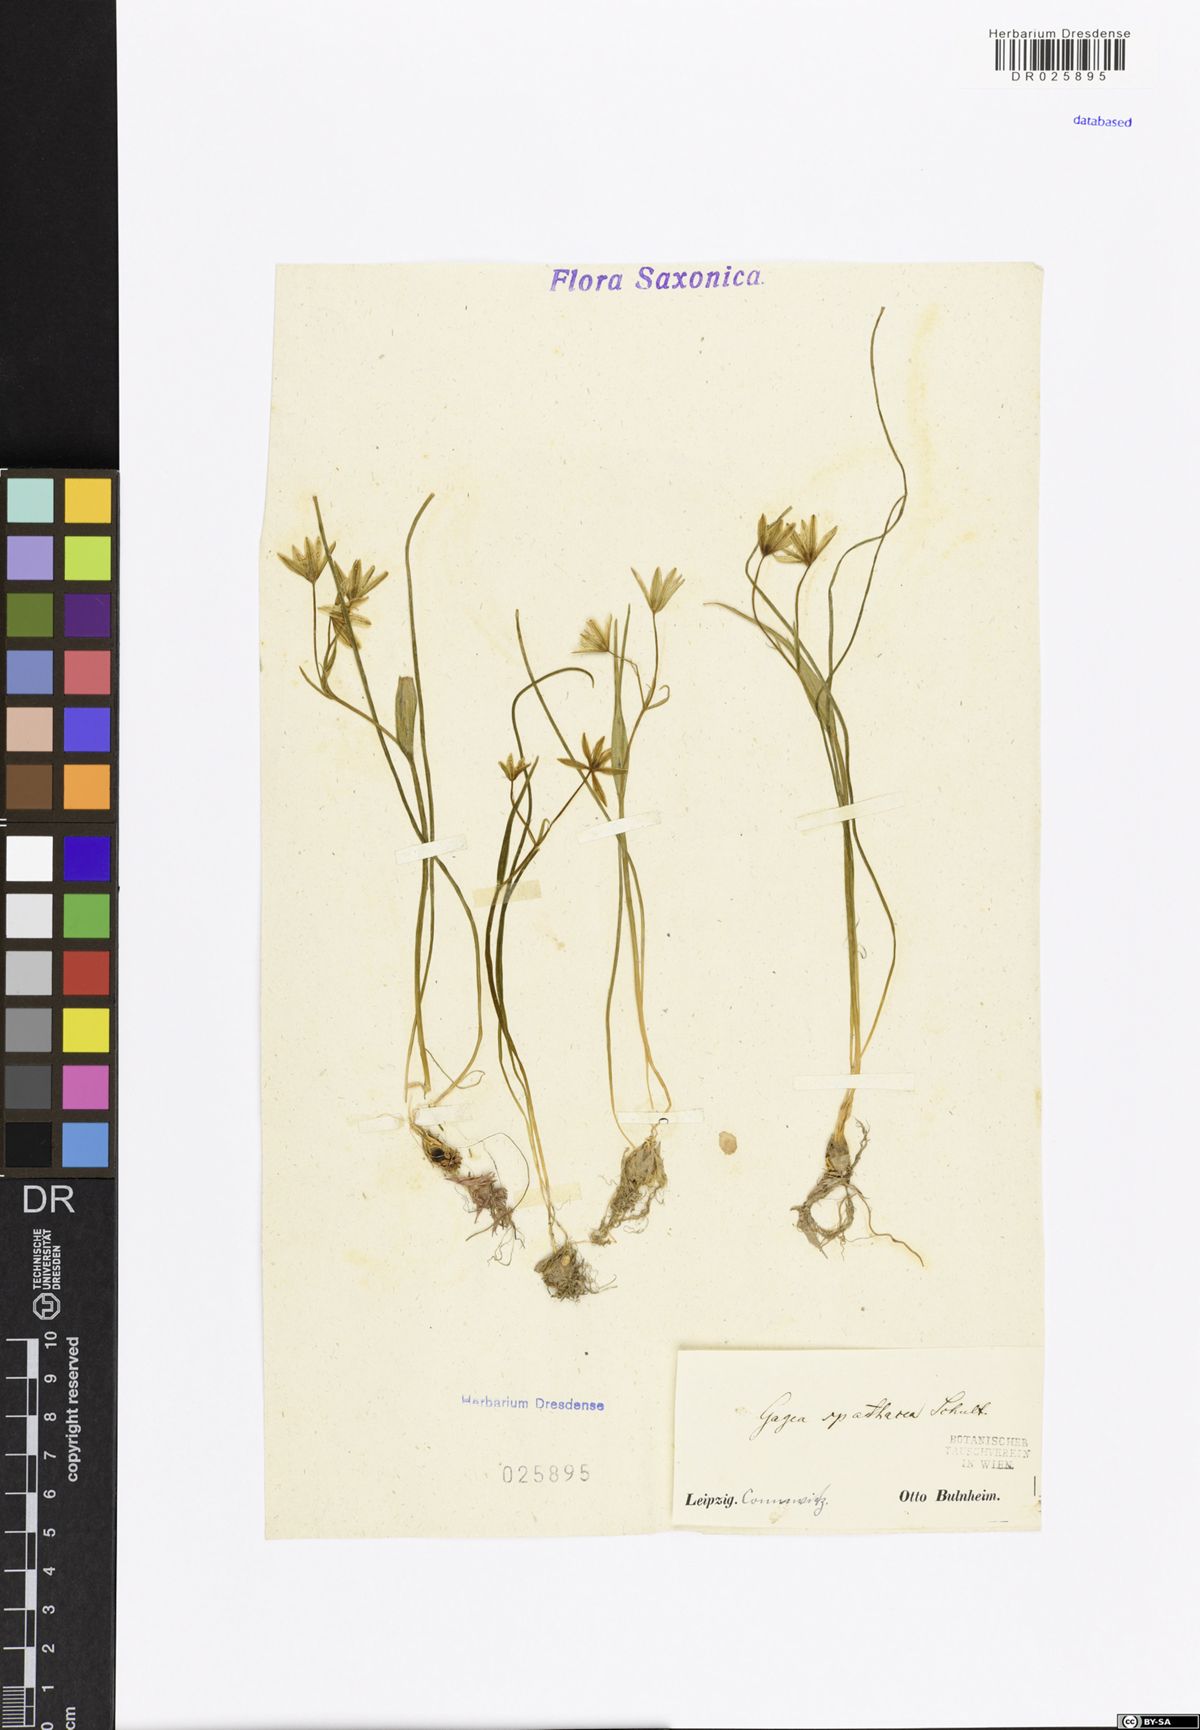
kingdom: Plantae
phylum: Tracheophyta
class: Liliopsida
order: Liliales
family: Liliaceae
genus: Gagea
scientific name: Gagea spathacea
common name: Belgian gagea
